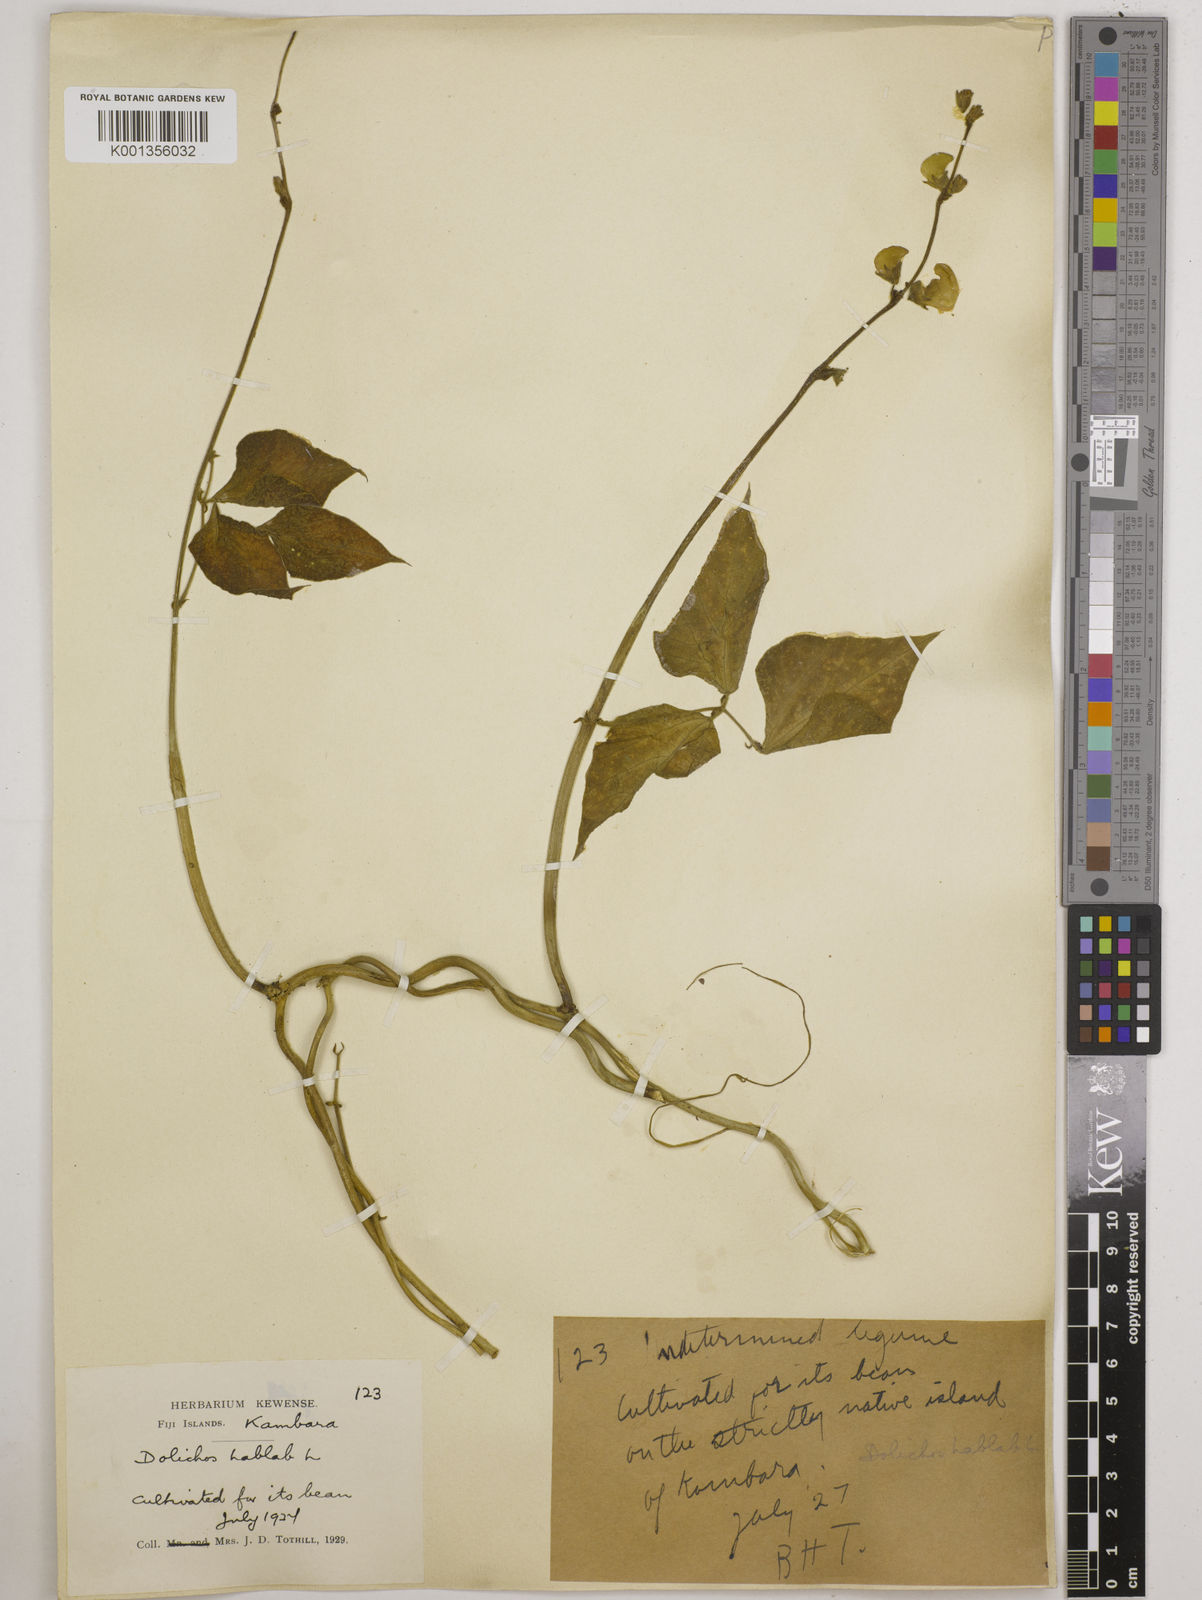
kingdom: Plantae
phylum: Tracheophyta
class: Magnoliopsida
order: Fabales
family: Fabaceae
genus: Lablab
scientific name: Lablab purpureus
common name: Lablab-bean
